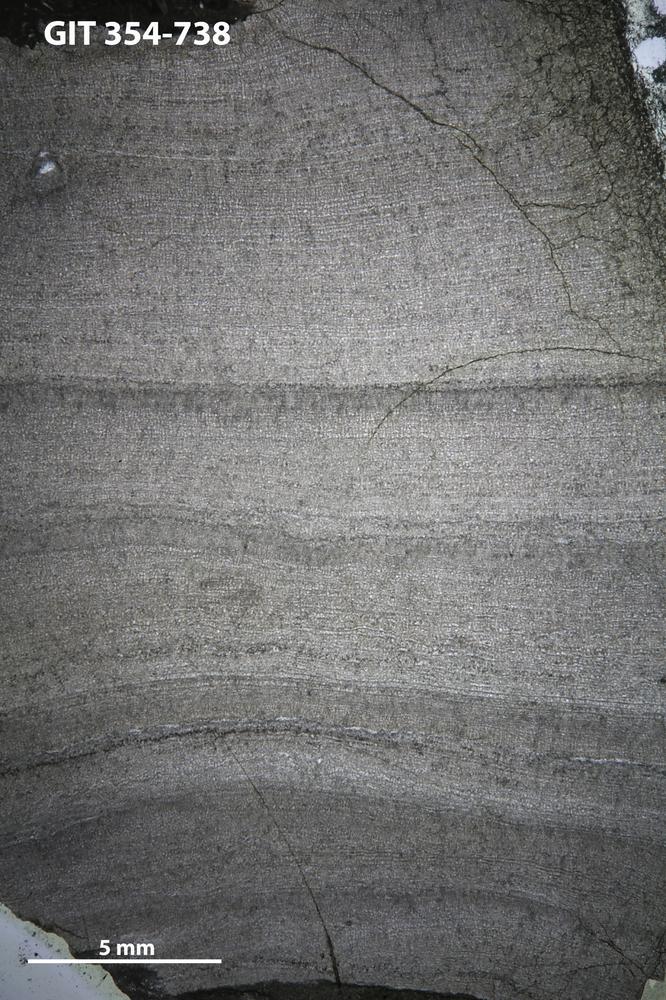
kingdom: Animalia
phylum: Porifera
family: Densastromatidae
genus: Densastroma
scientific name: Densastroma
